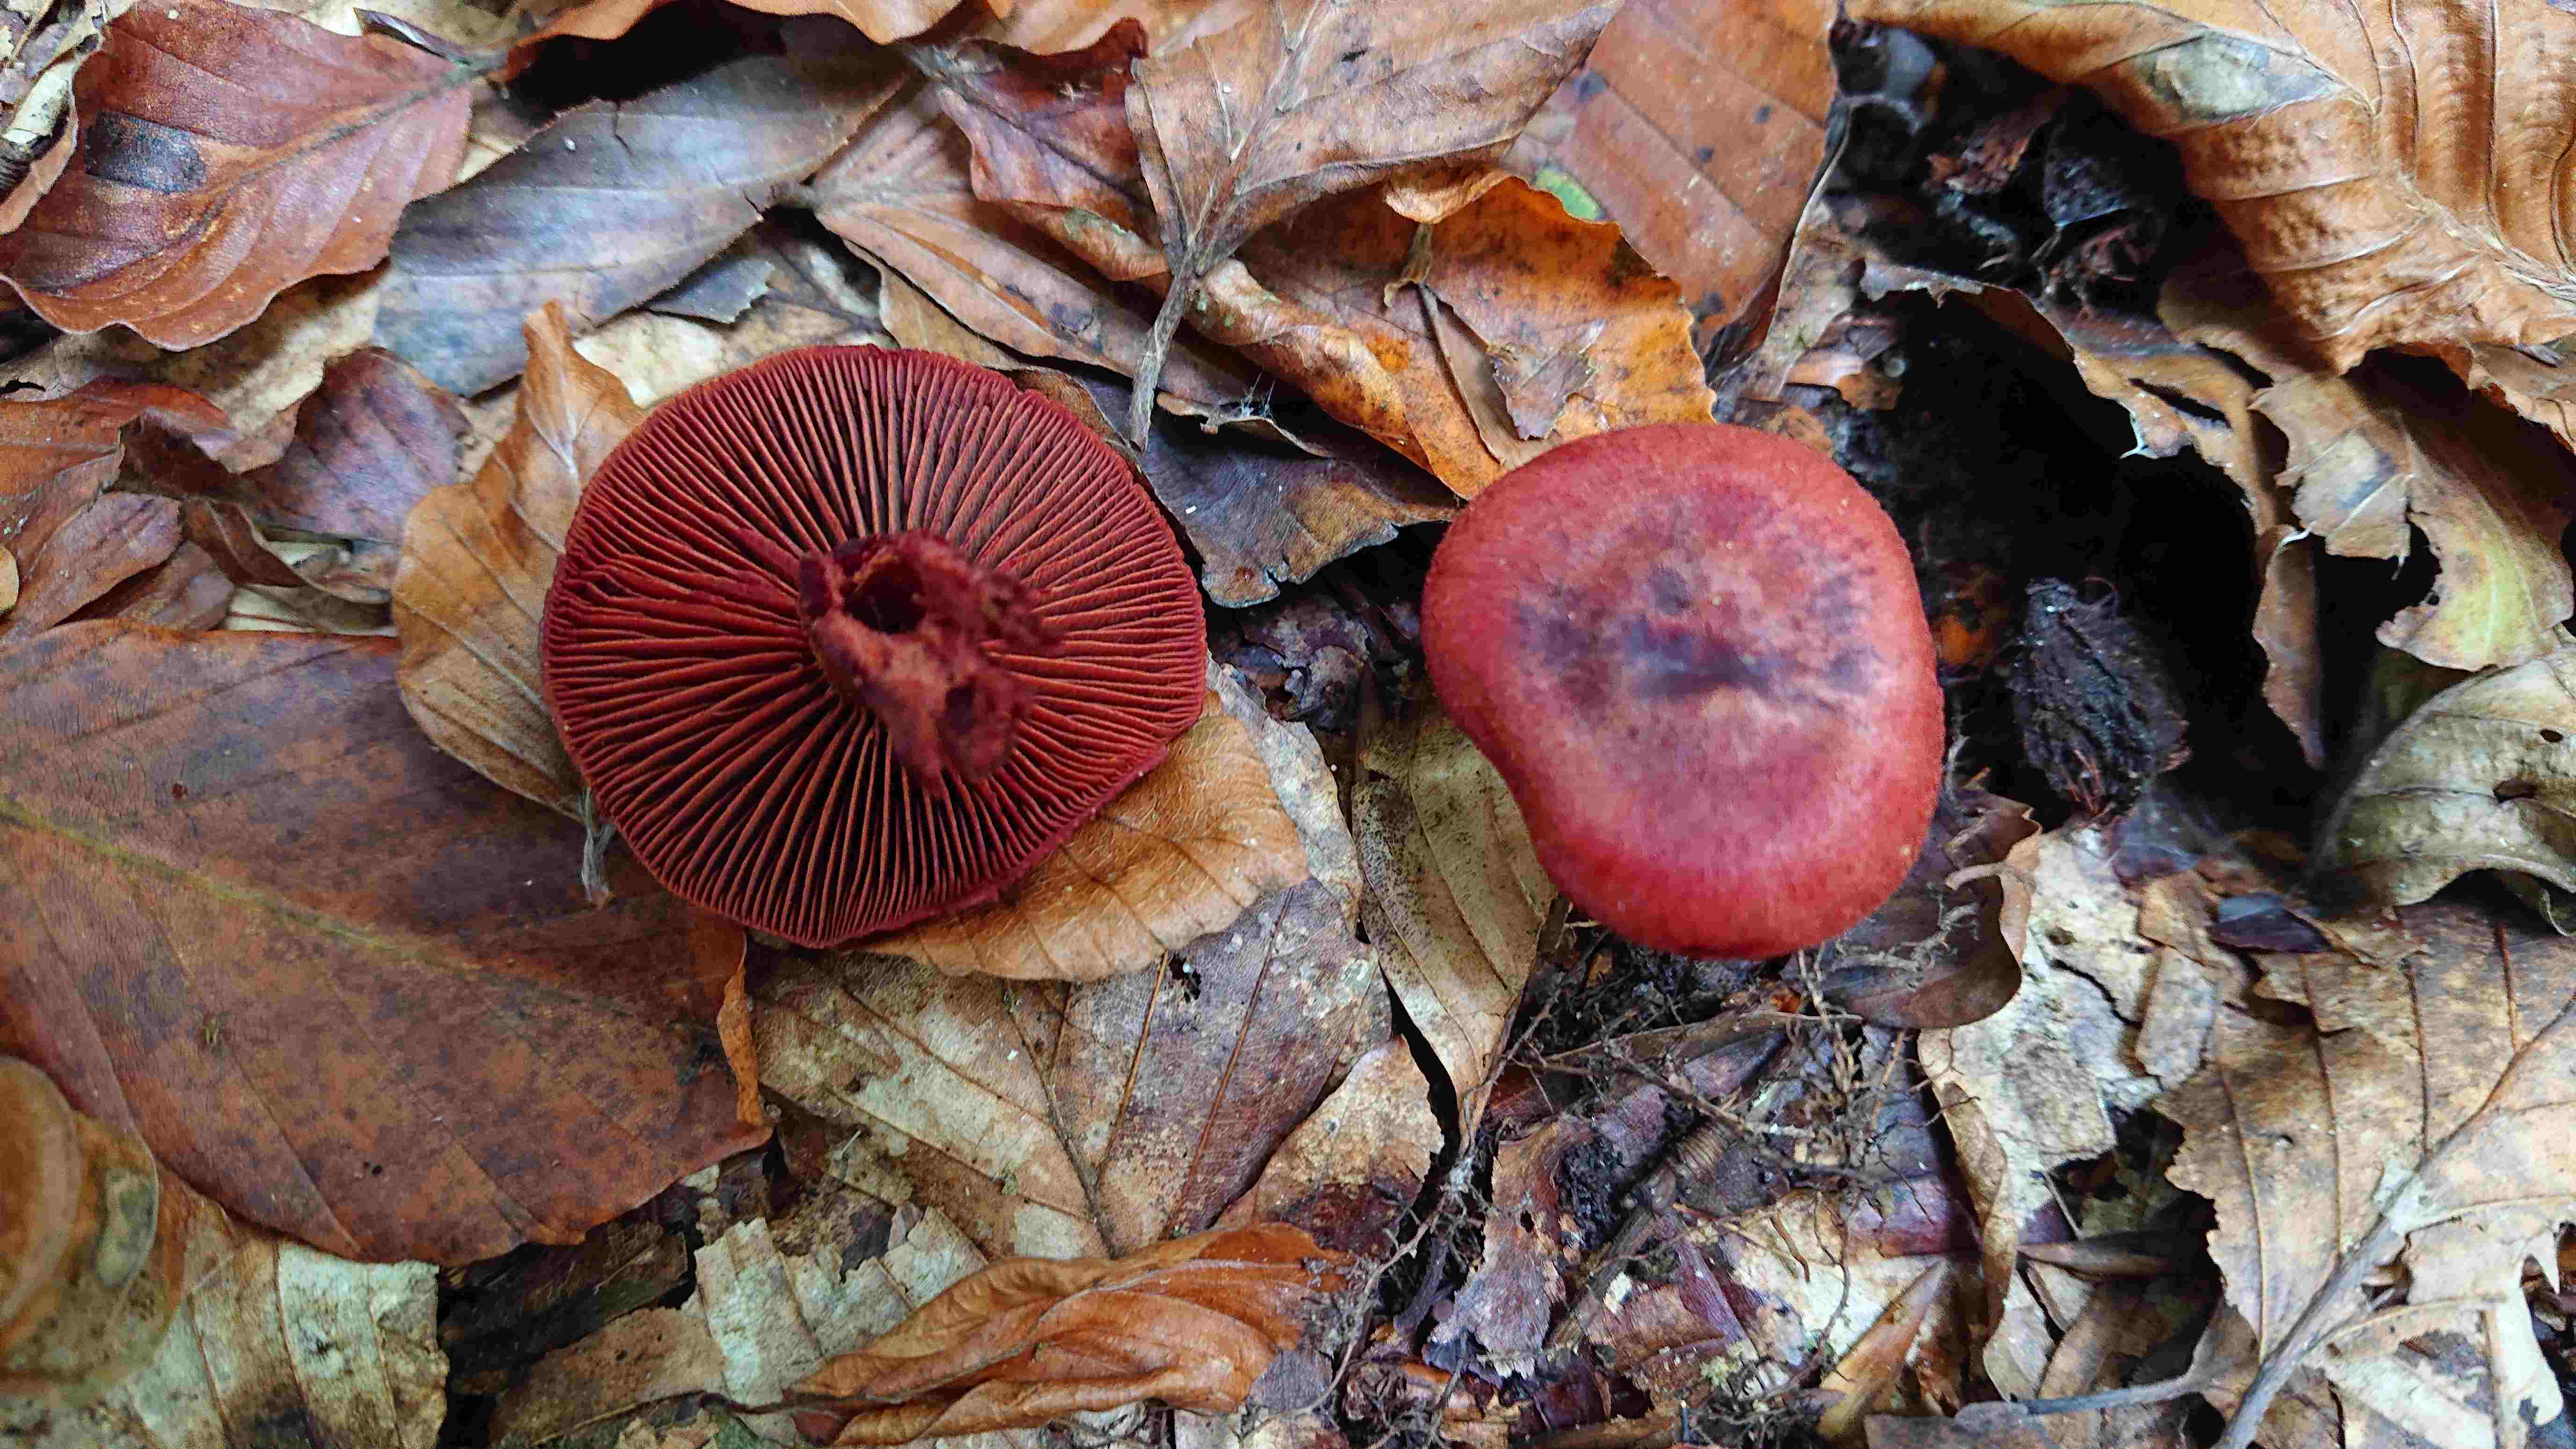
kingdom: Fungi
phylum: Basidiomycota
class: Agaricomycetes
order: Agaricales
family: Cortinariaceae
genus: Cortinarius
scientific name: Cortinarius sanguineus
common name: Bloodred webcap
